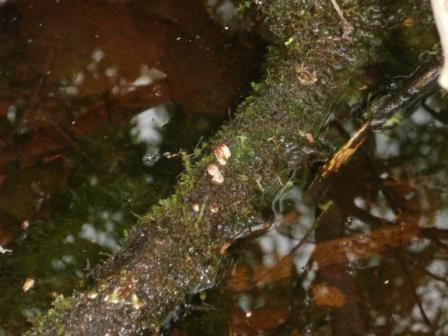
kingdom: Fungi
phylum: Basidiomycota
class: Agaricomycetes
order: Agaricales
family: Psathyrellaceae
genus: Coprinellus
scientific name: Coprinellus radians
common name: grynet blækhat
